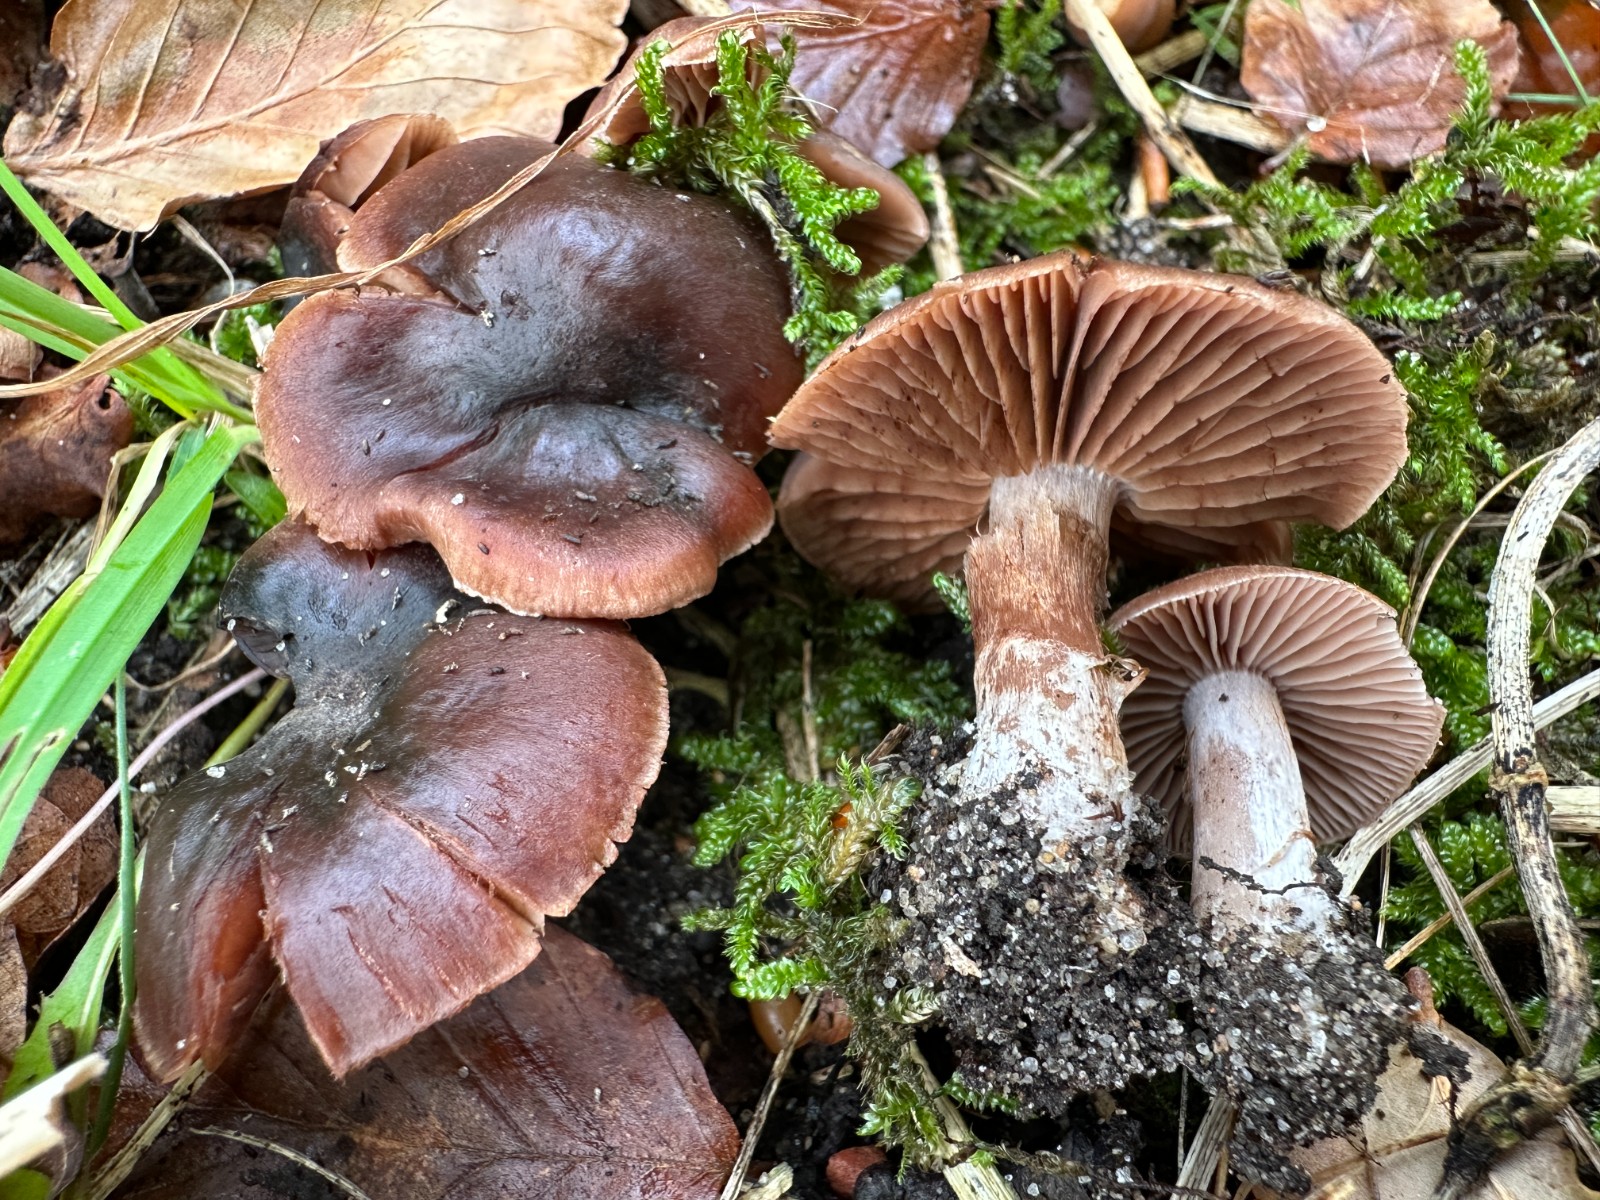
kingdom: Fungi
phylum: Basidiomycota
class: Agaricomycetes
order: Agaricales
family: Cortinariaceae
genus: Cortinarius
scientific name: Cortinarius
